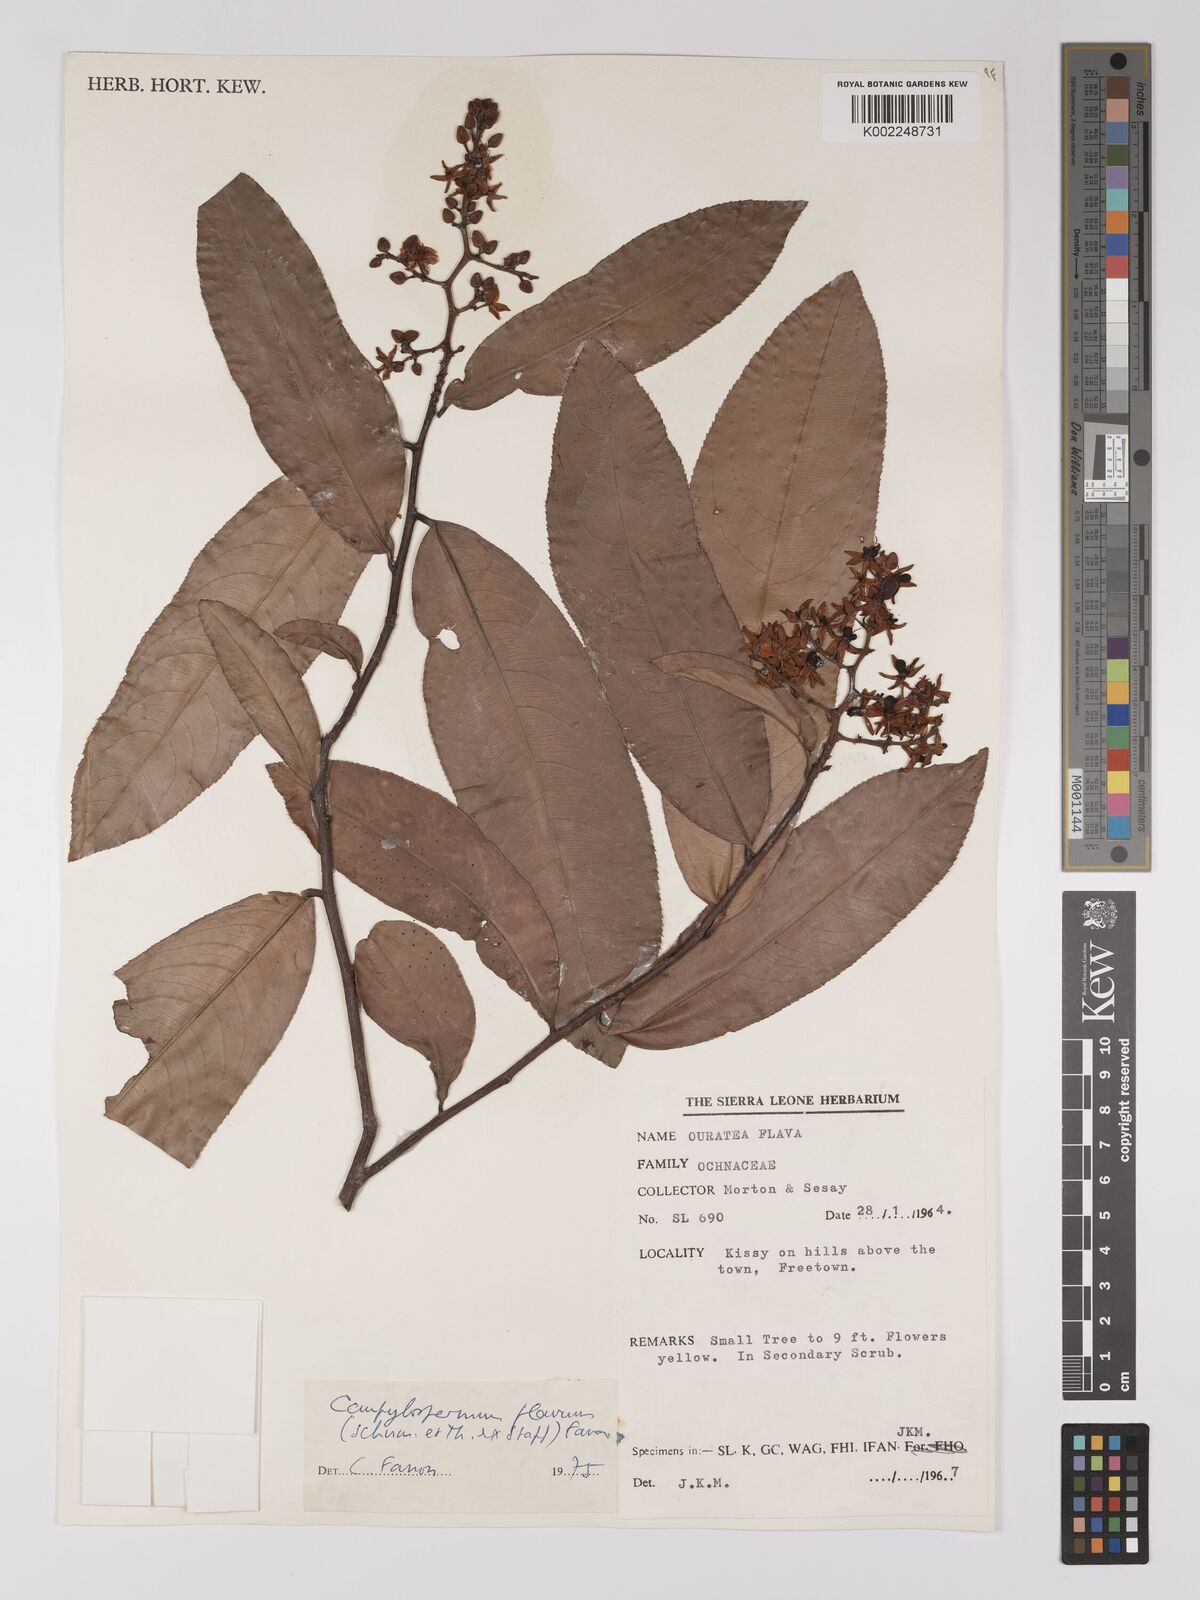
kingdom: Plantae
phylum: Tracheophyta
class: Magnoliopsida
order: Malpighiales
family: Ochnaceae
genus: Campylospermum
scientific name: Campylospermum flavum
